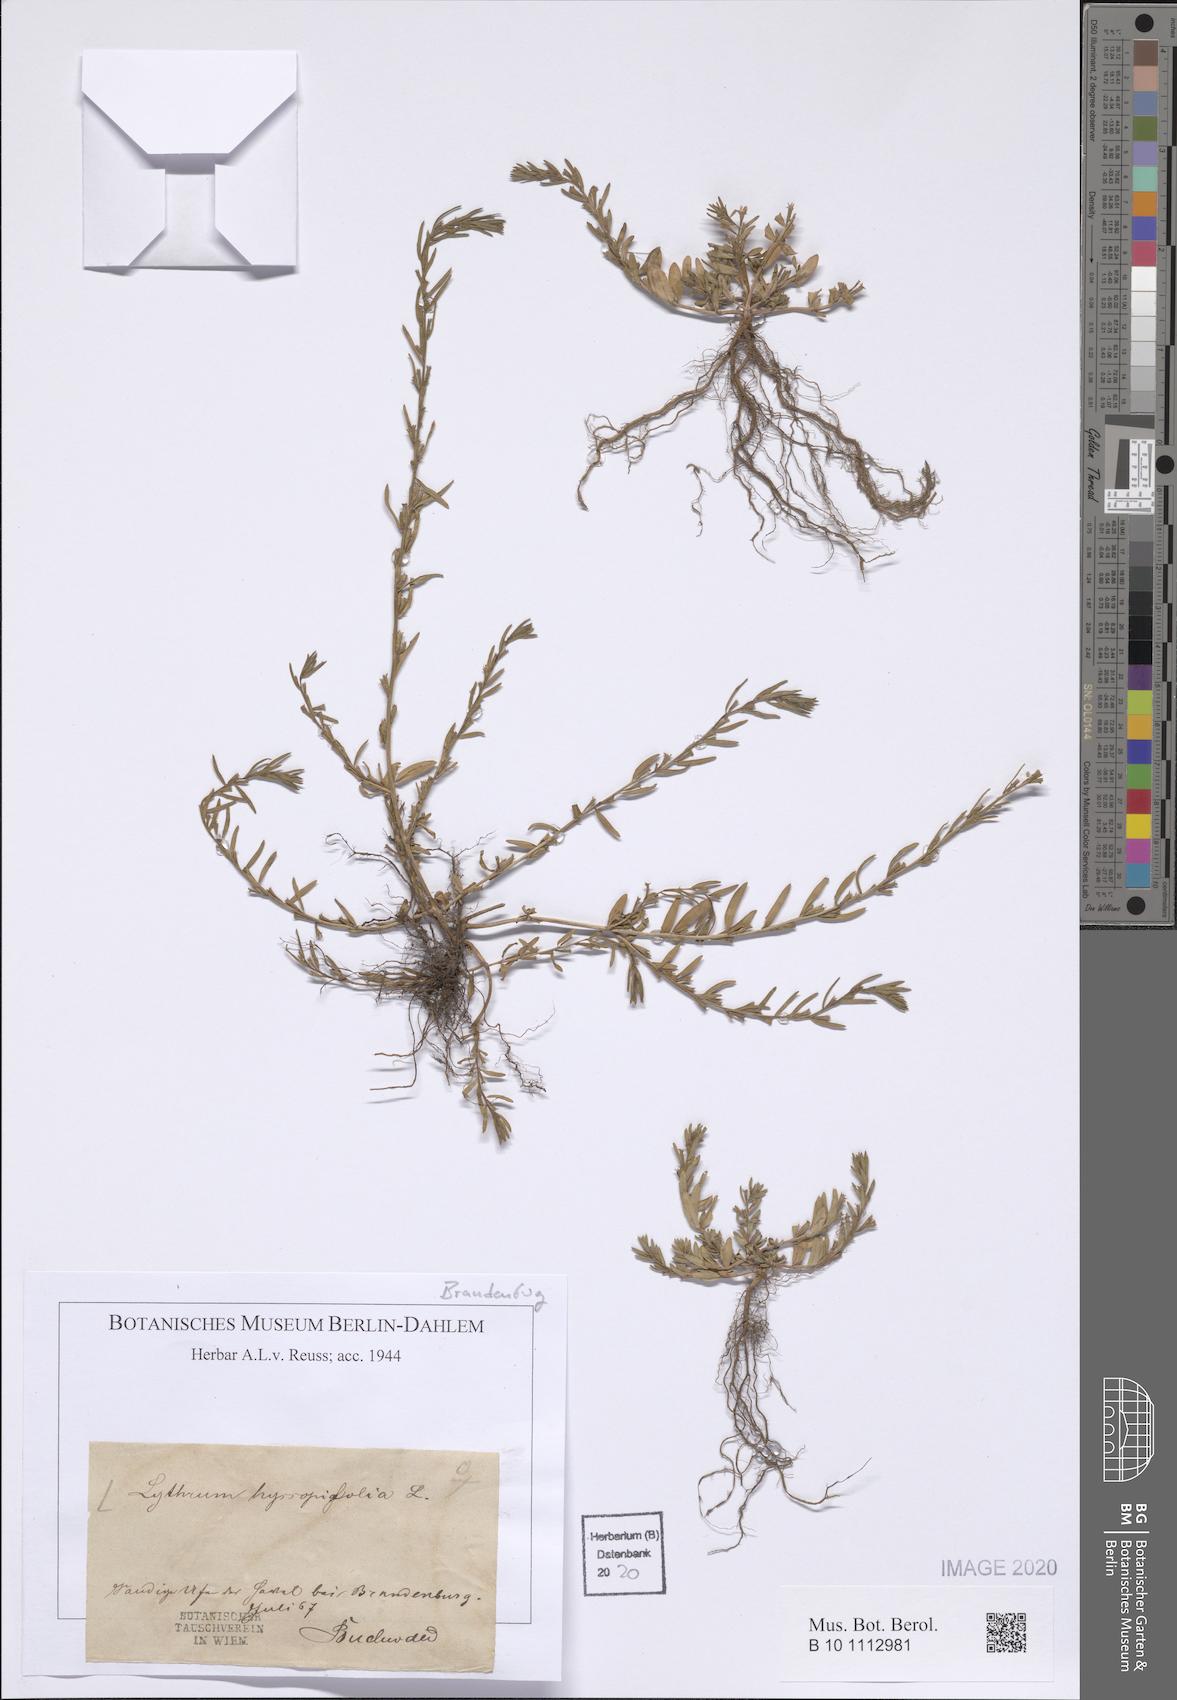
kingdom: Plantae
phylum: Tracheophyta
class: Magnoliopsida
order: Myrtales
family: Lythraceae
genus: Lythrum
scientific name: Lythrum hyssopifolia
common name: Grass-poly
